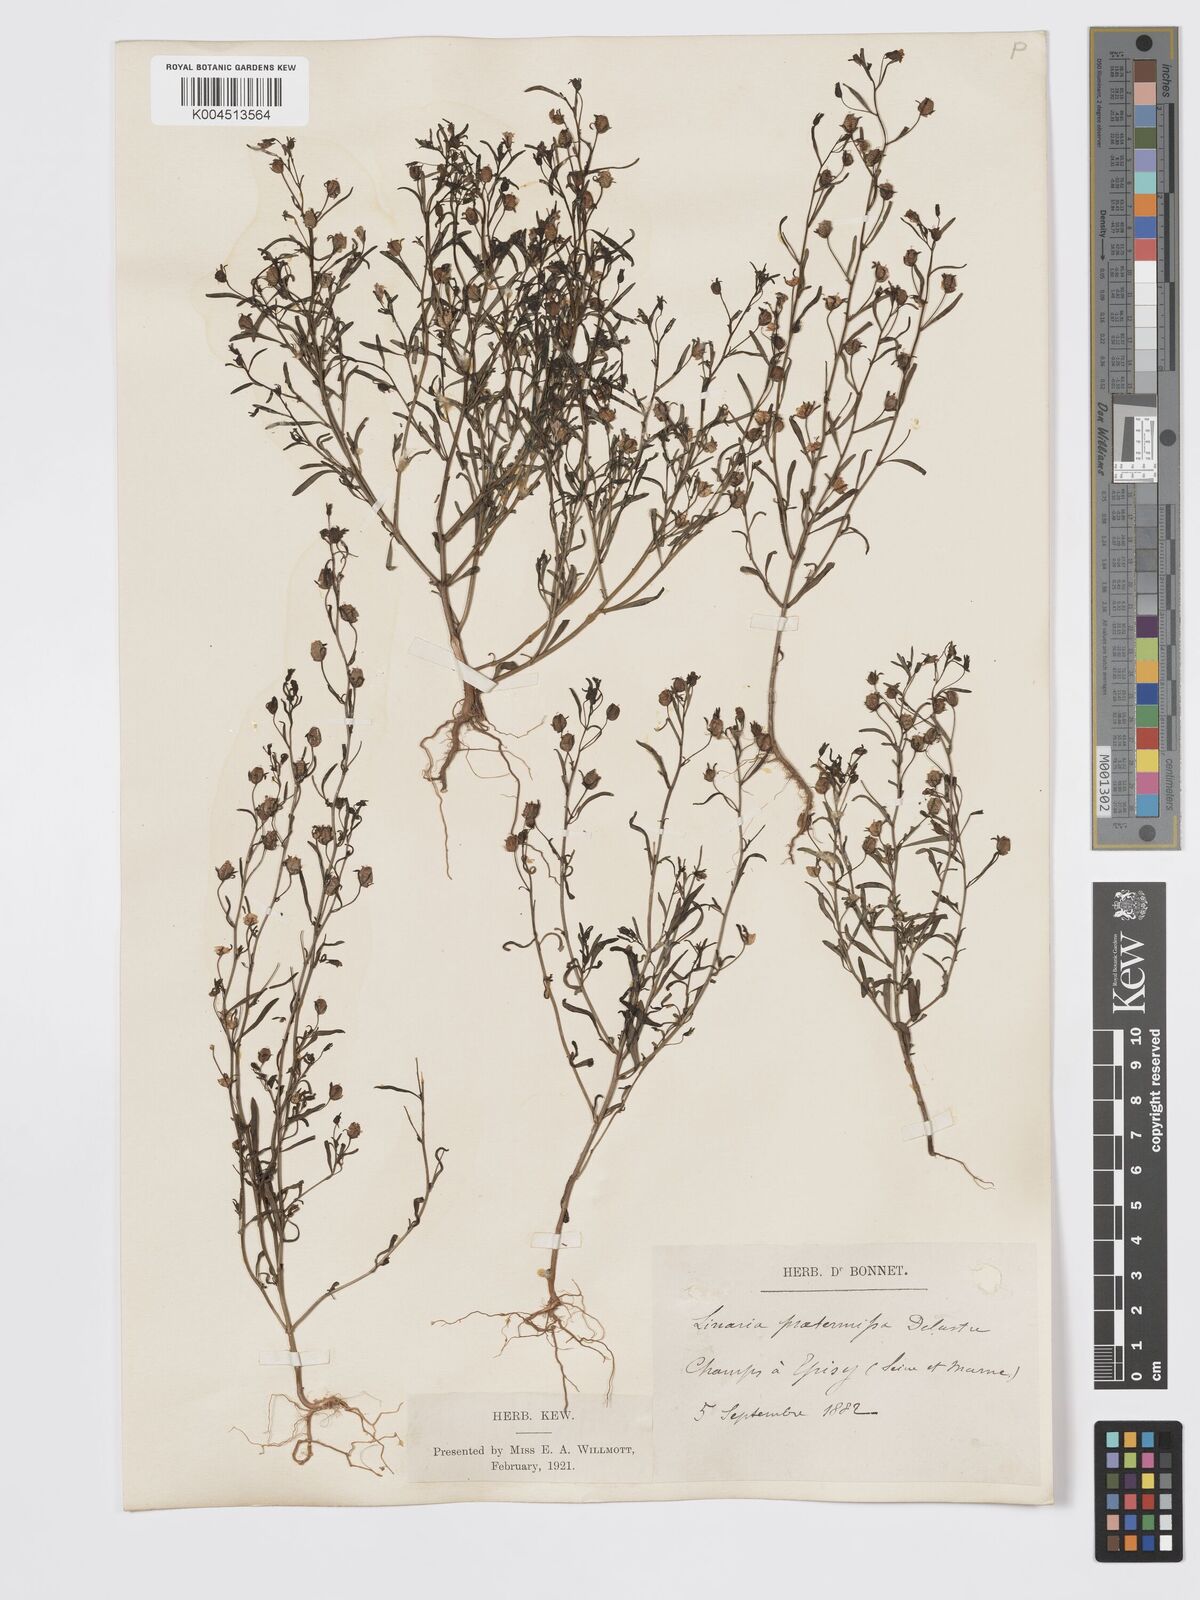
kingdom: Plantae
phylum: Tracheophyta
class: Magnoliopsida
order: Lamiales
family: Plantaginaceae
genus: Chaenorhinum
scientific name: Chaenorhinum minus
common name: Dwarf snapdragon
